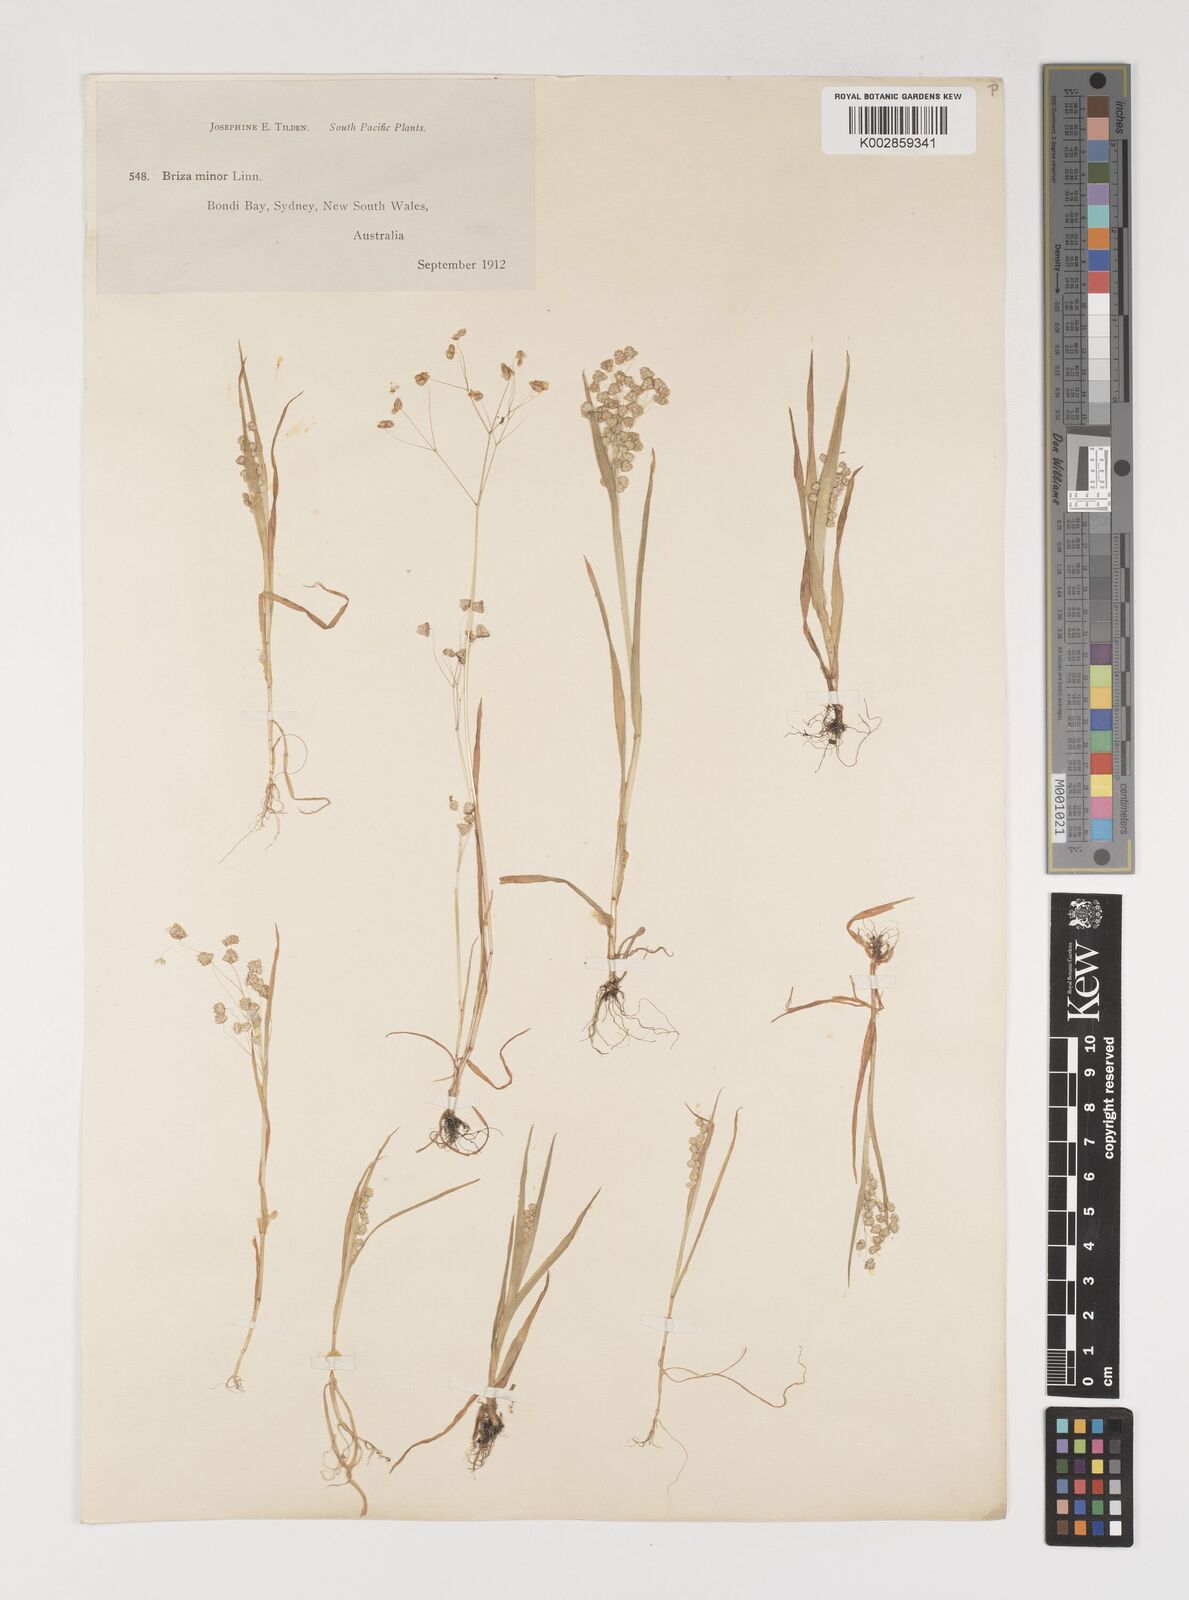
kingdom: Plantae
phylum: Tracheophyta
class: Liliopsida
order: Poales
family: Poaceae
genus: Briza
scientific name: Briza minor
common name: Lesser quaking-grass
